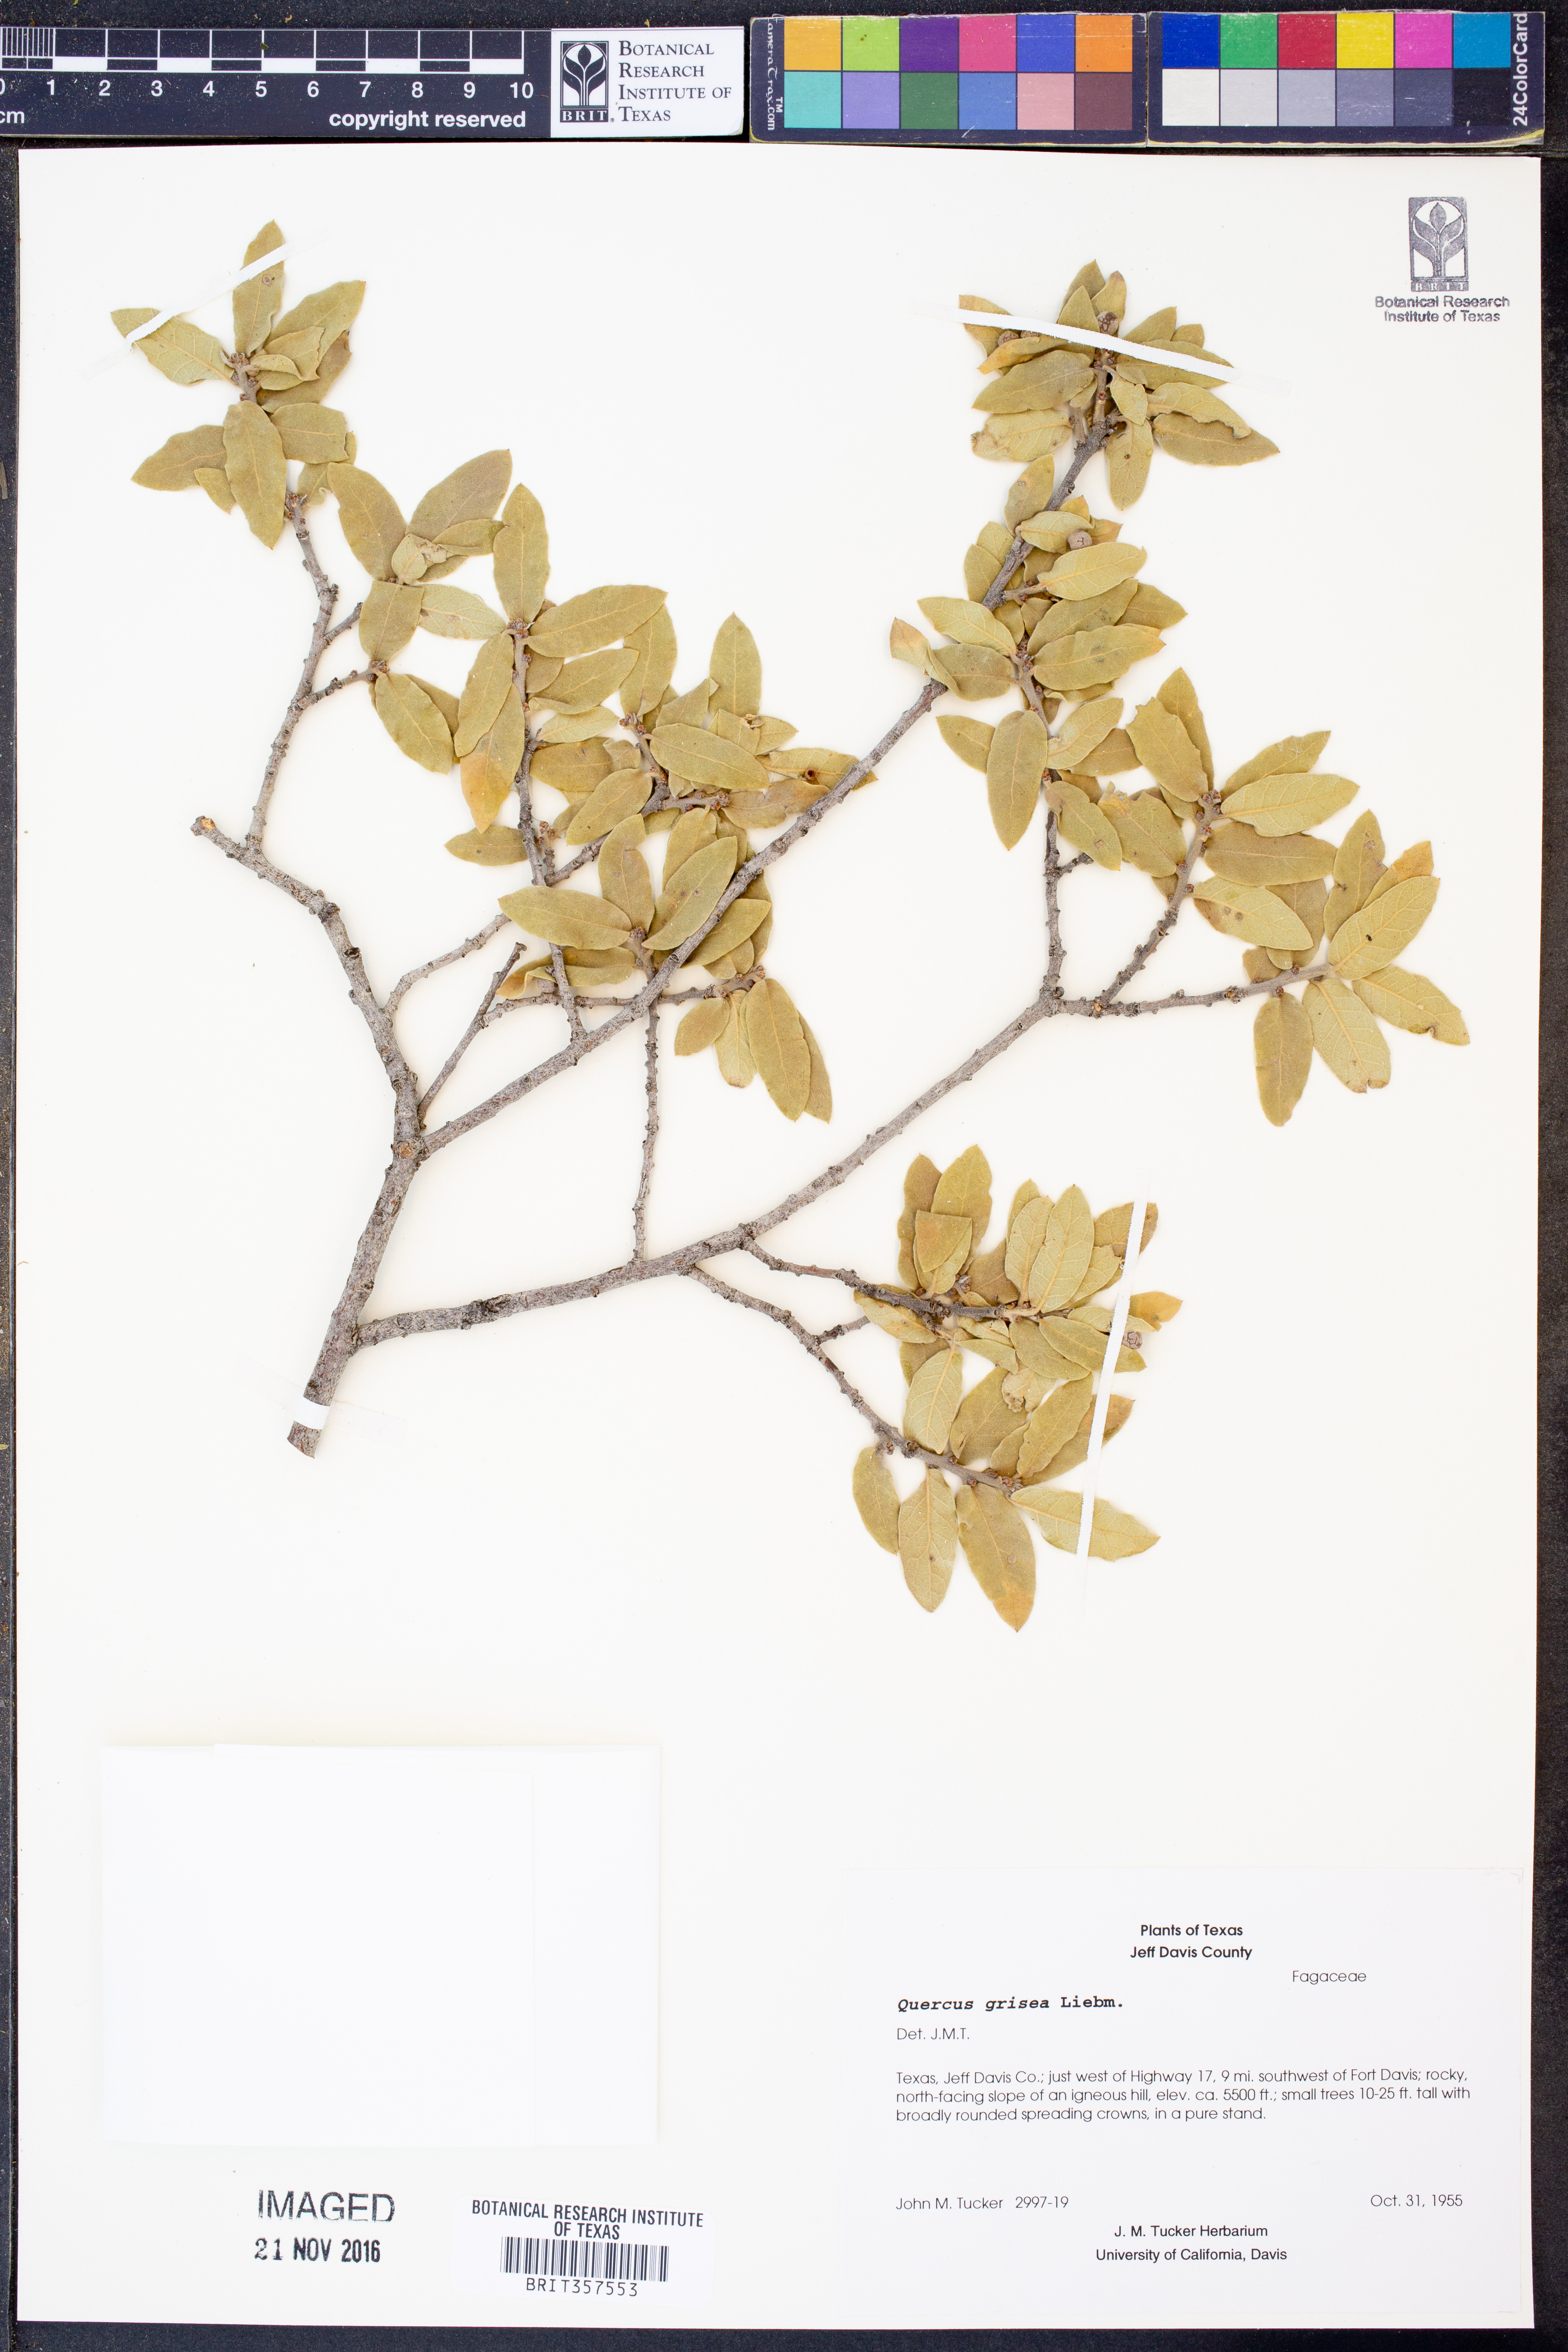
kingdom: Plantae
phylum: Tracheophyta
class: Magnoliopsida
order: Fagales
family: Fagaceae
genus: Quercus
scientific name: Quercus grisea
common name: Gray oak
